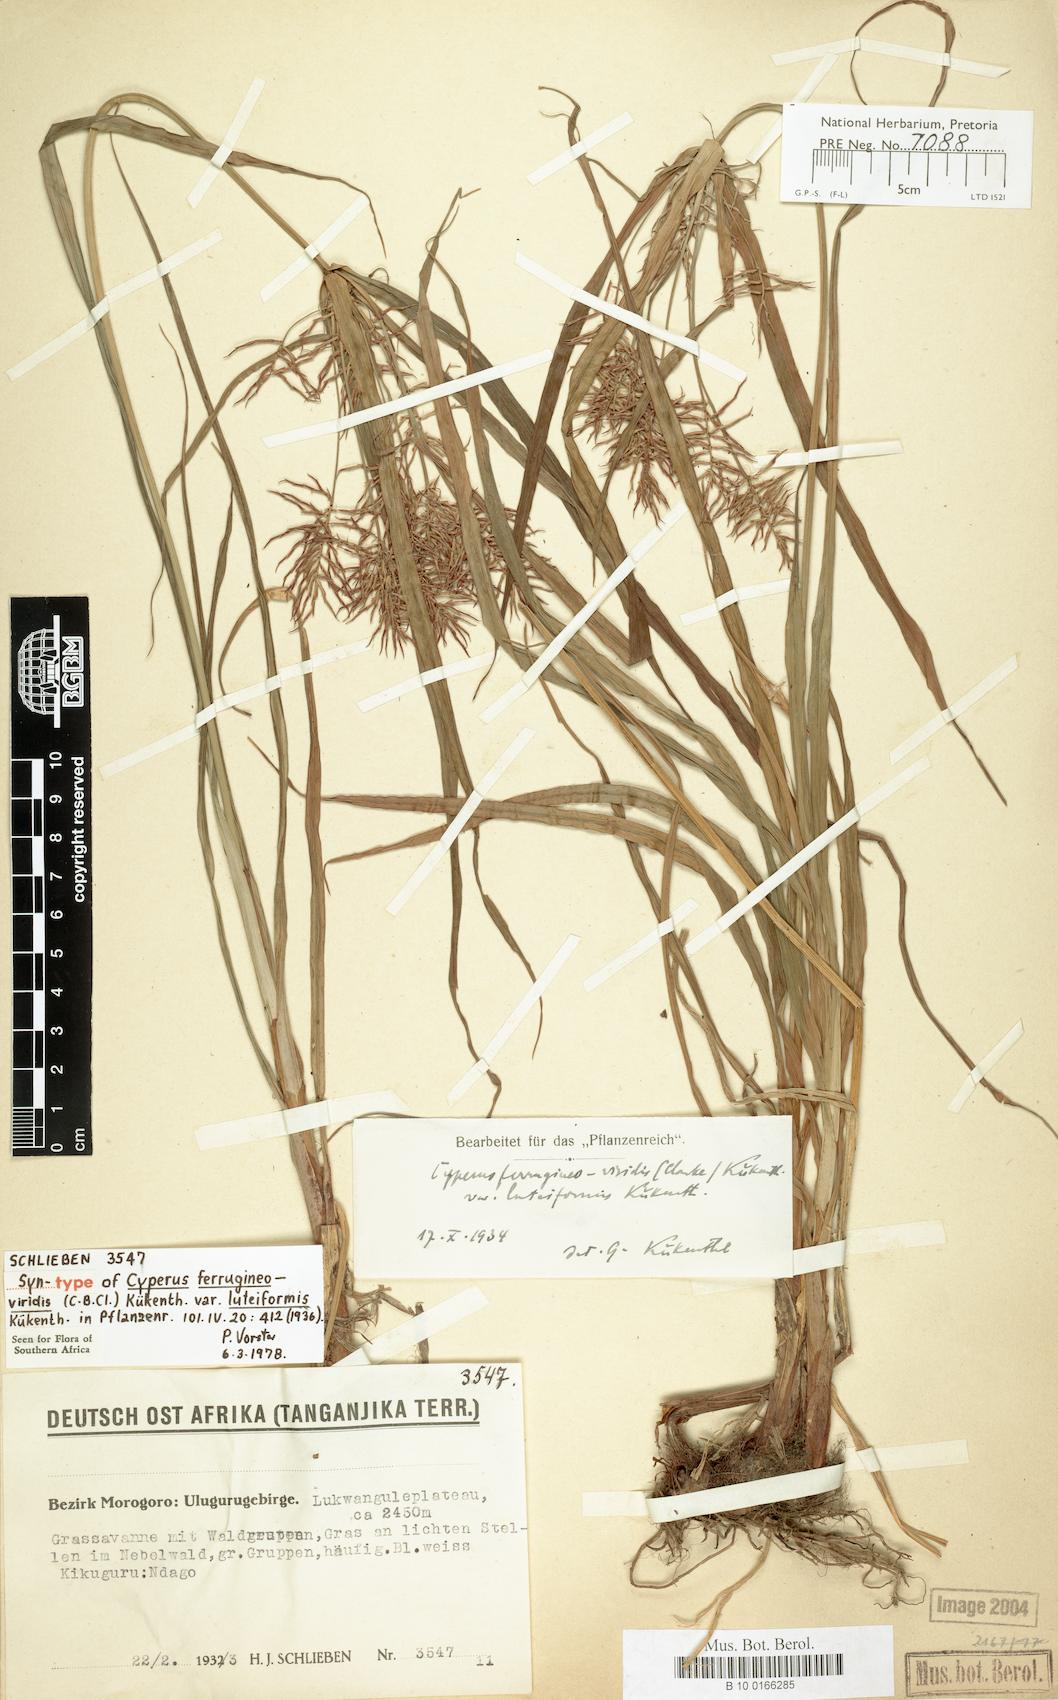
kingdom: Plantae
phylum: Tracheophyta
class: Liliopsida
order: Poales
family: Cyperaceae
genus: Cyperus
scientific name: Cyperus ferrugineoviridis
